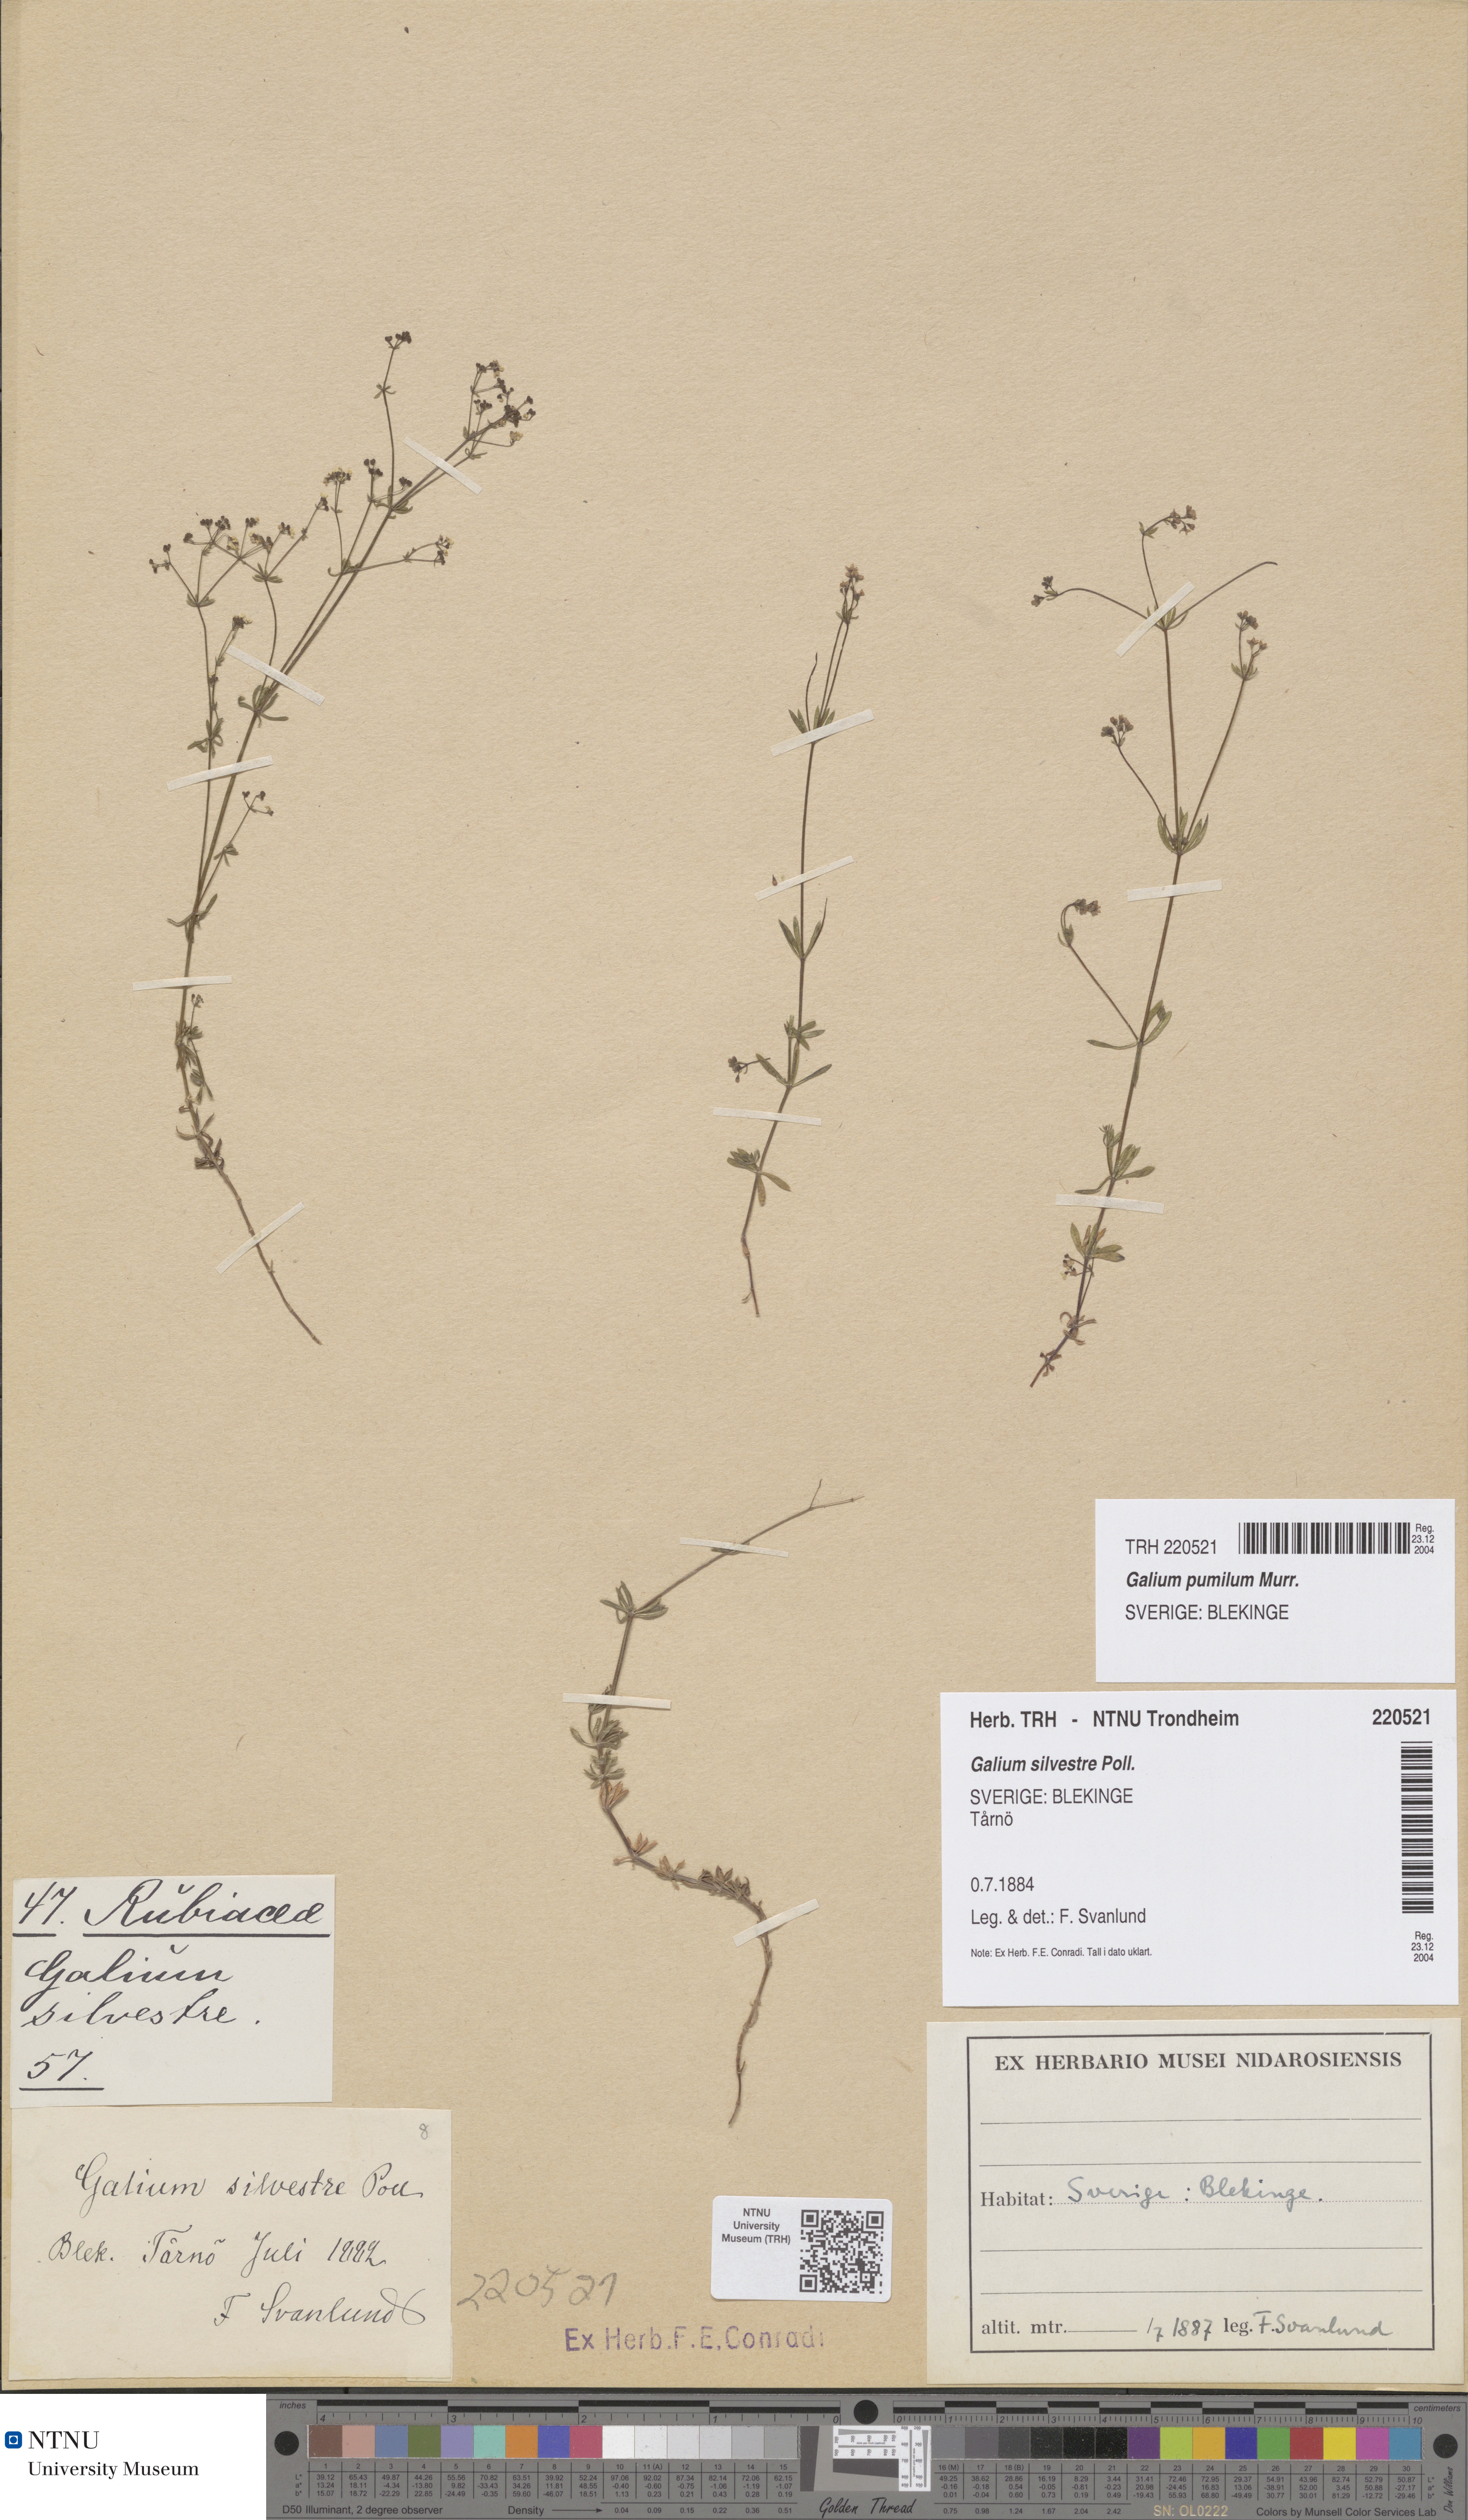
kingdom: Plantae
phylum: Tracheophyta
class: Magnoliopsida
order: Gentianales
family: Rubiaceae
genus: Galium
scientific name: Galium pumilum
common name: Slender bedstraw
